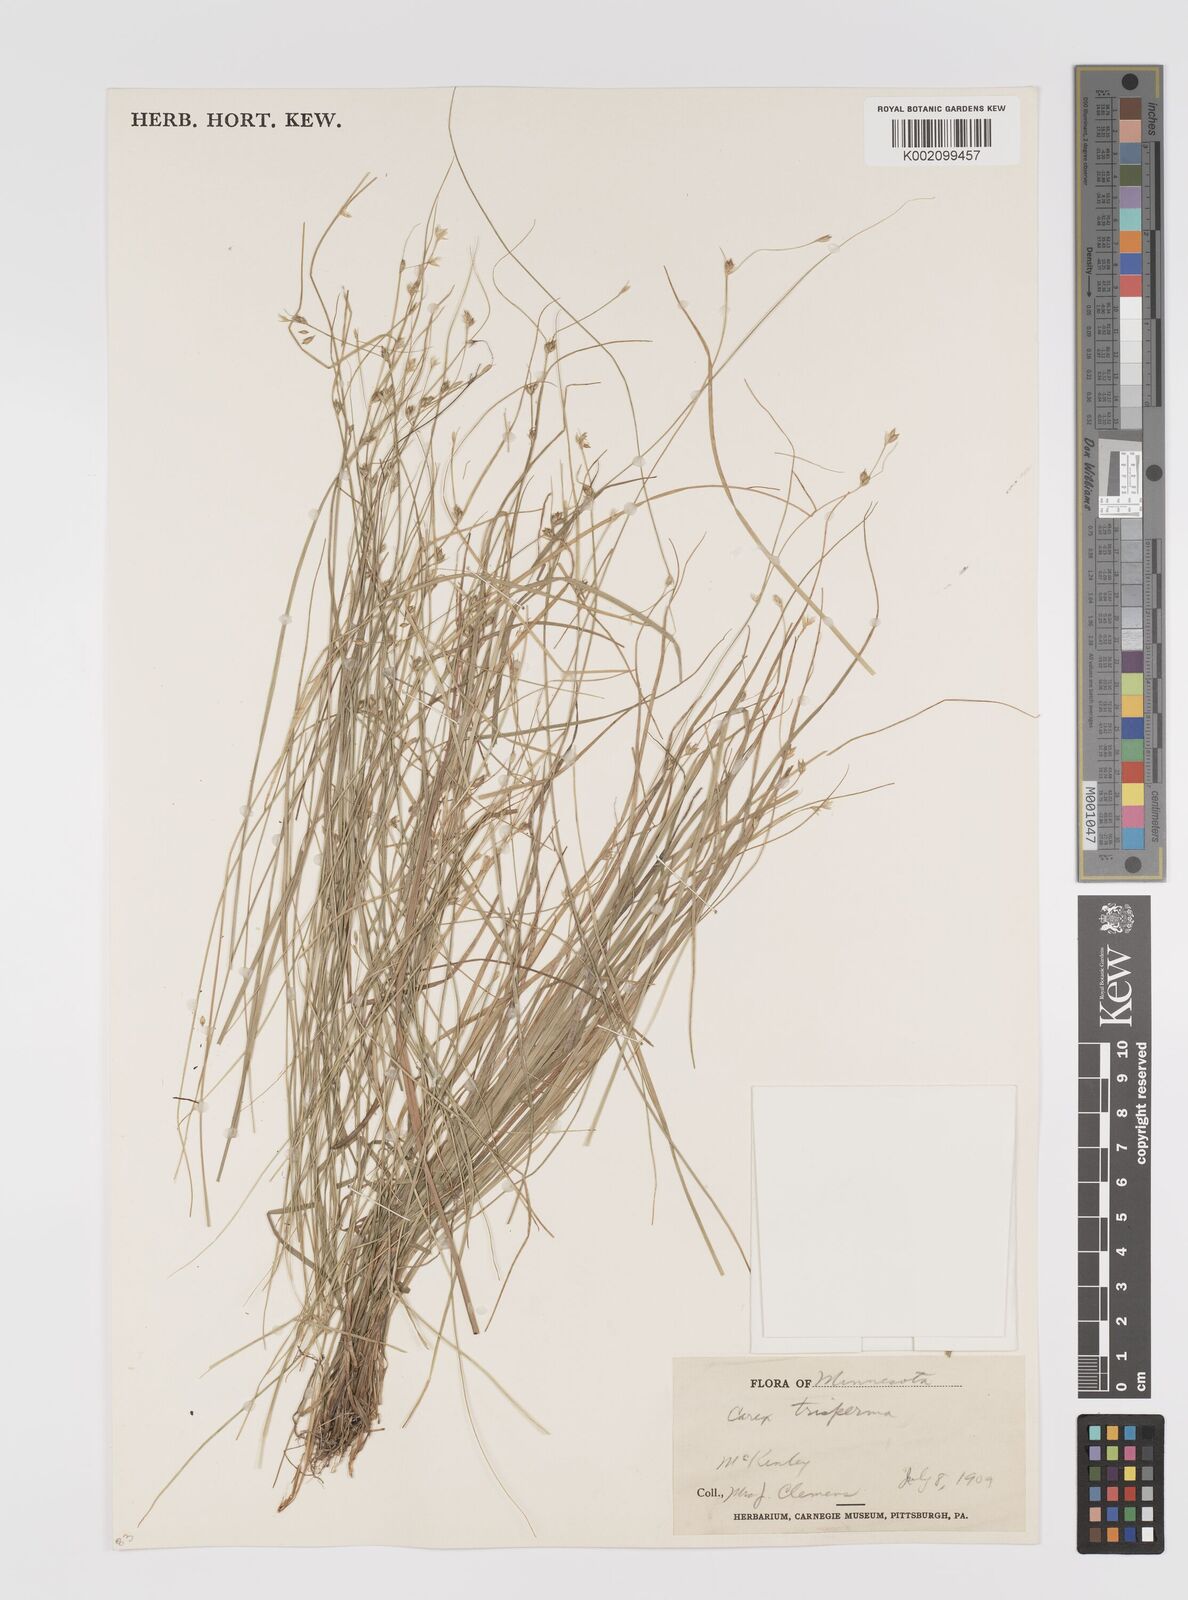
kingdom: Plantae
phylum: Tracheophyta
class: Liliopsida
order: Poales
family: Cyperaceae
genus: Carex
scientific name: Carex trisperma
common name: Three-seeded sedge
